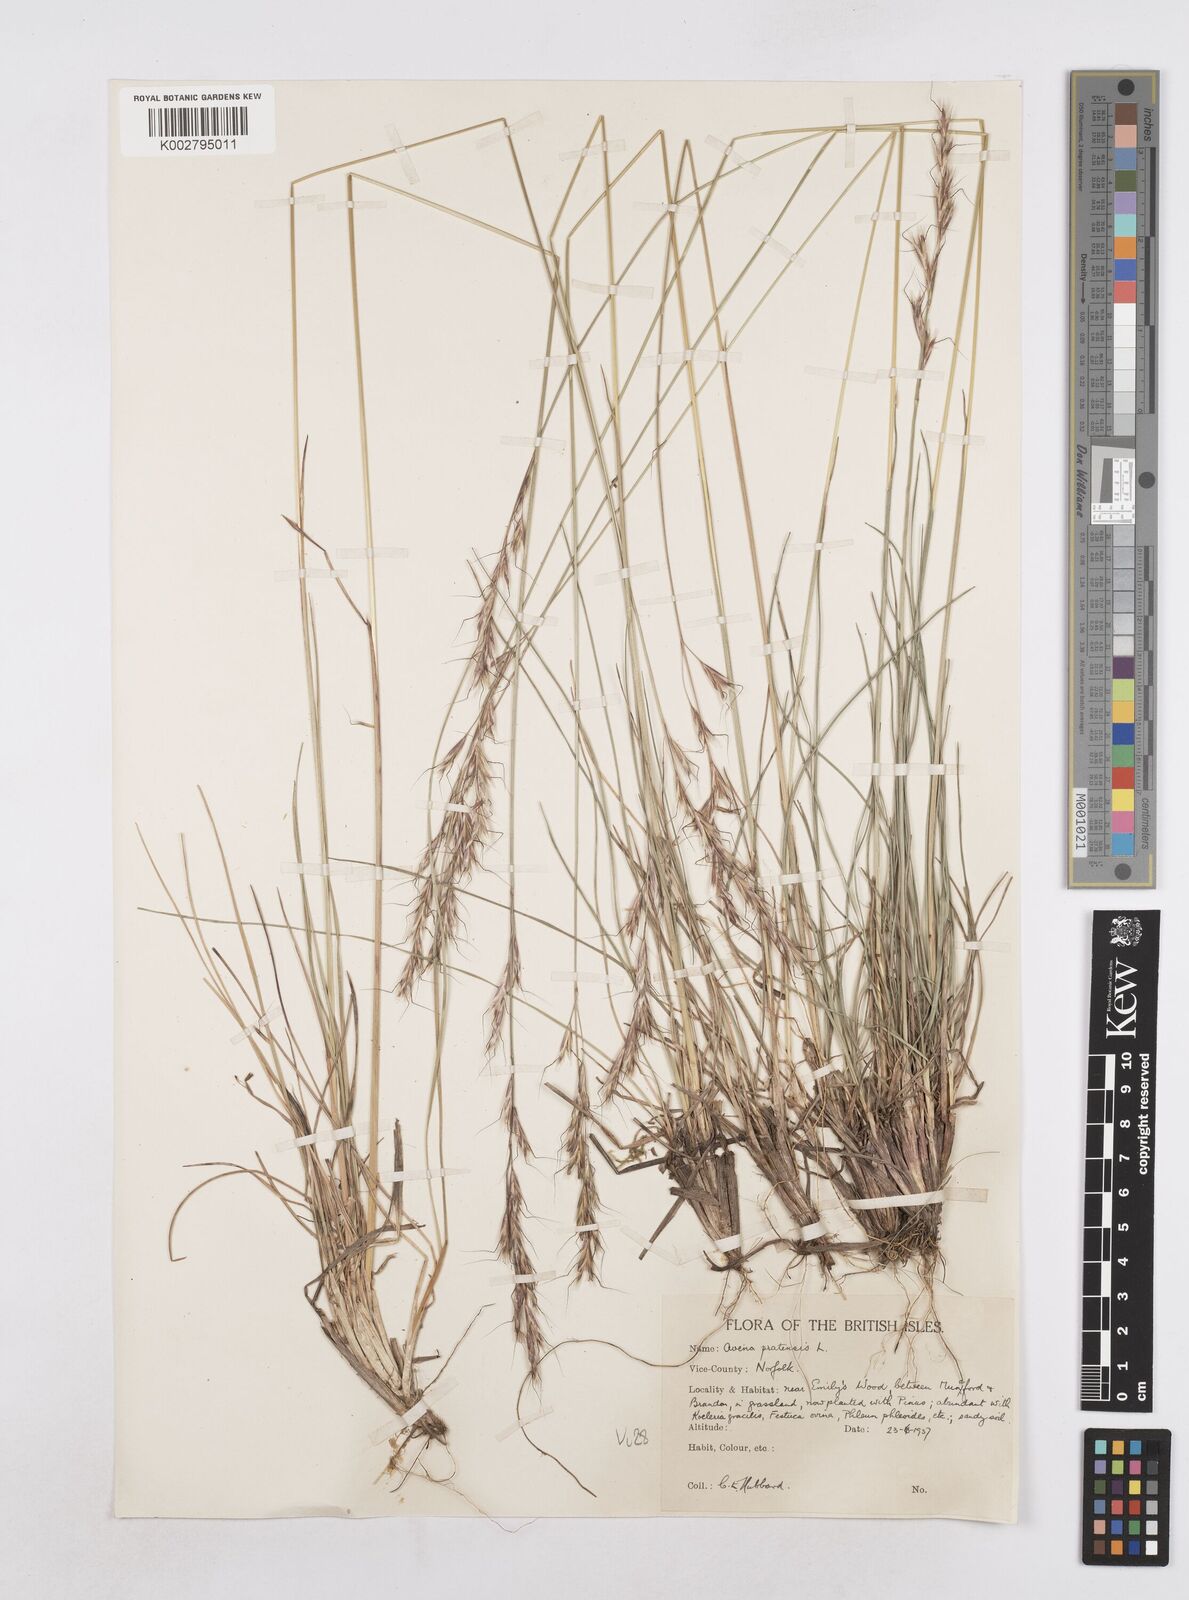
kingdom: Plantae
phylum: Tracheophyta
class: Liliopsida
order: Poales
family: Poaceae
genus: Helictochloa
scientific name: Helictochloa pratensis
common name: Meadow oat grass
